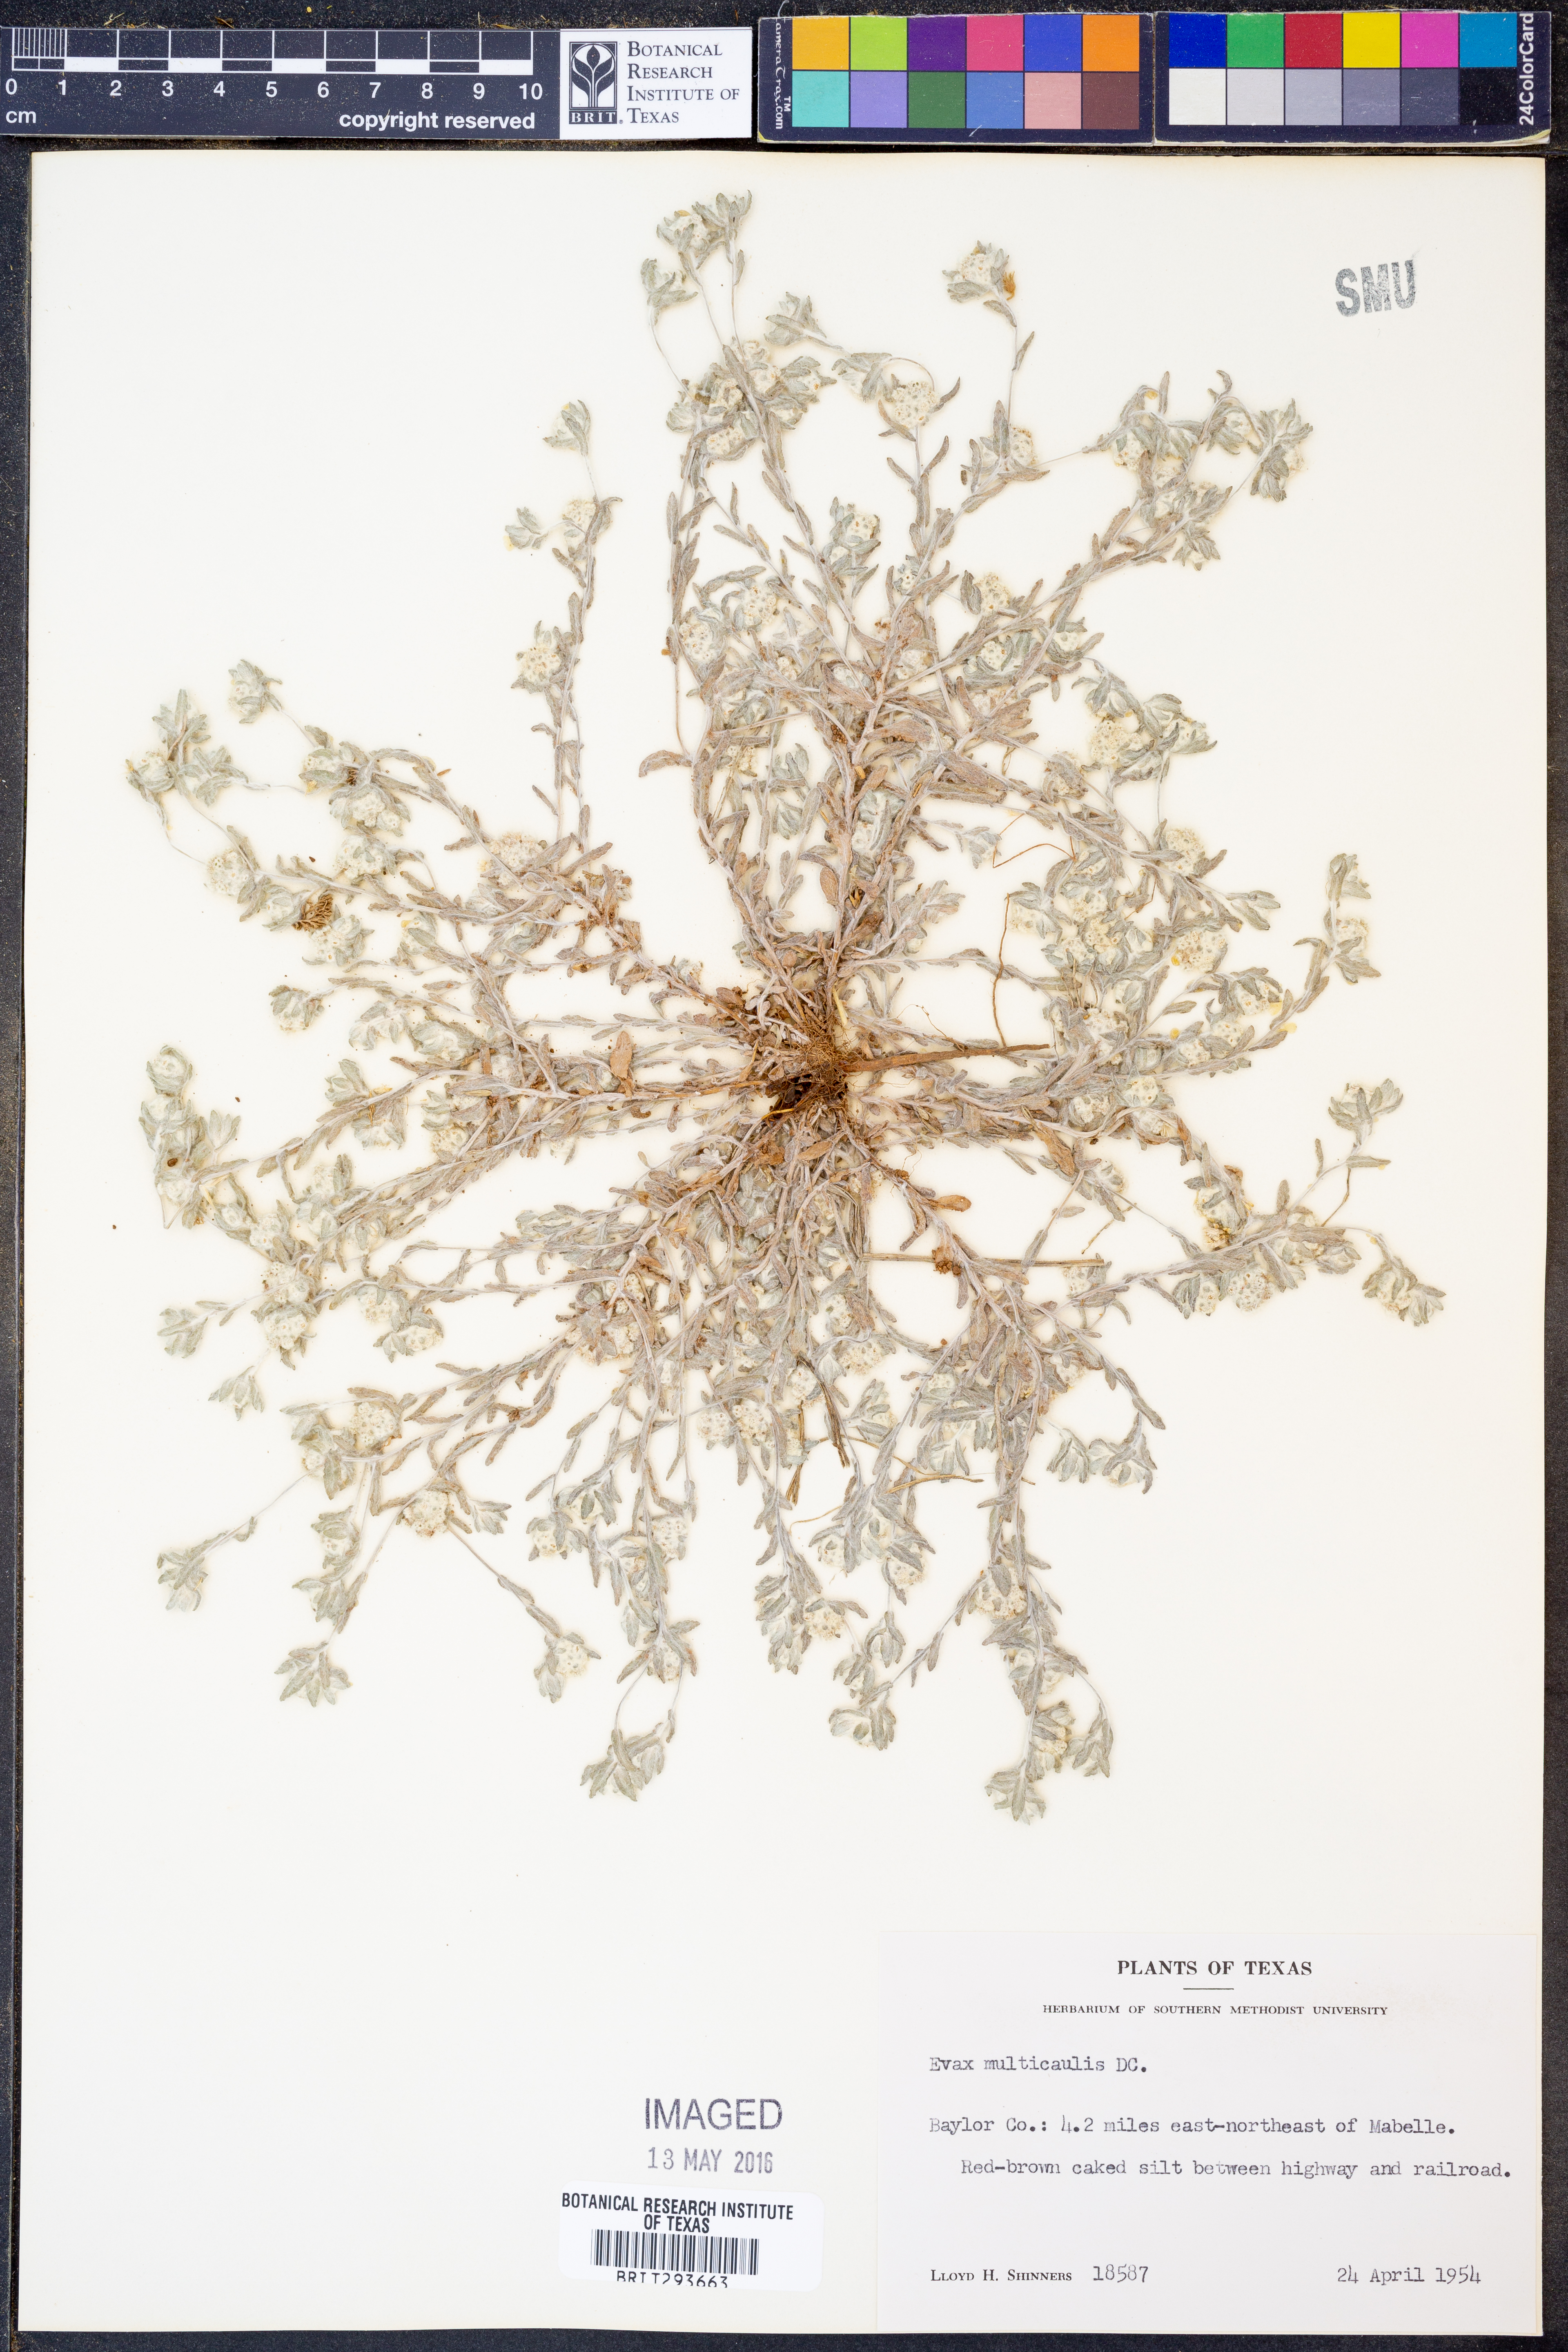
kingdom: Plantae
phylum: Tracheophyta
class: Magnoliopsida
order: Asterales
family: Asteraceae
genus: Diaperia
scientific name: Diaperia verna
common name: Many-stem rabbit-tobacco
